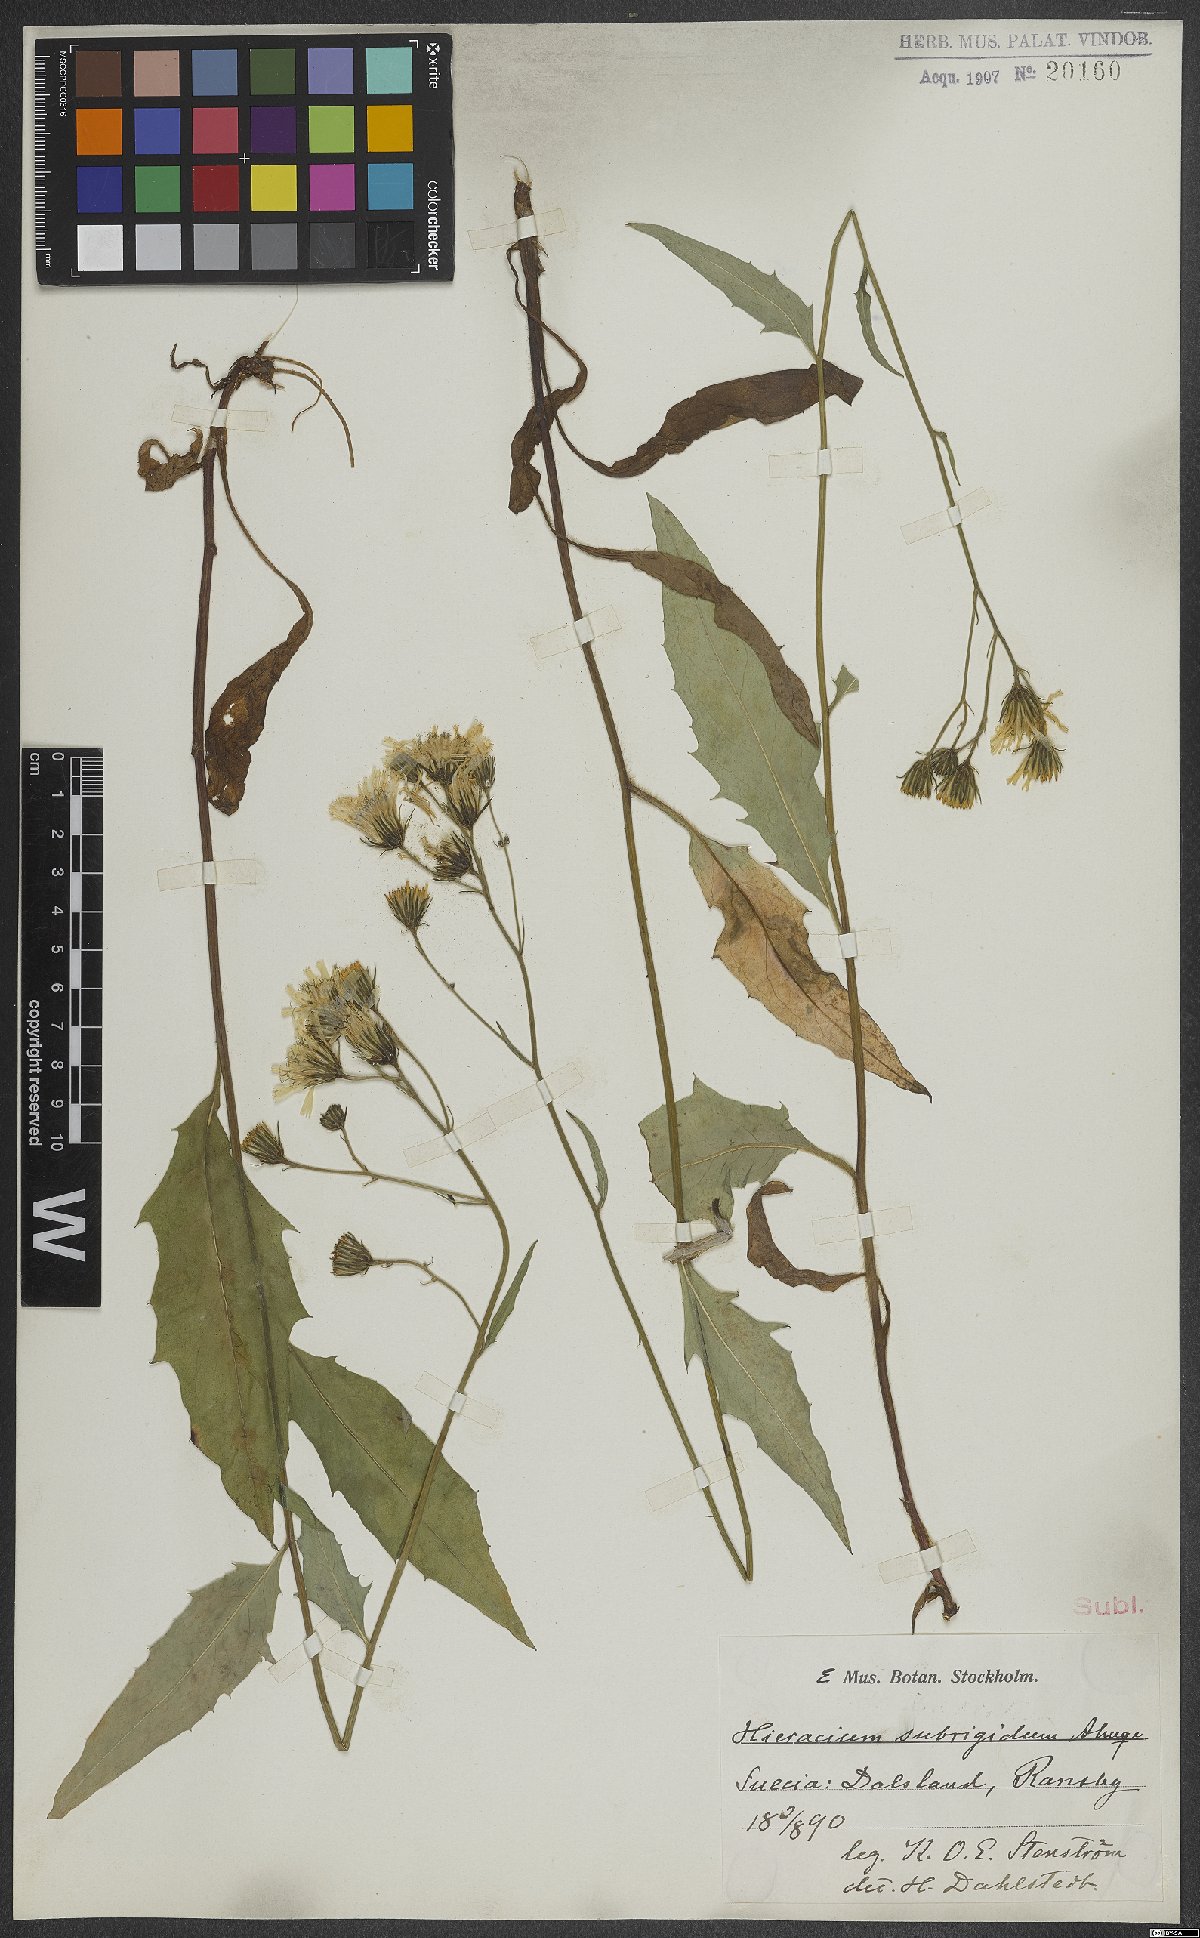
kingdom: Plantae
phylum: Tracheophyta
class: Magnoliopsida
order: Asterales
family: Asteraceae
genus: Hieracium
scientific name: Hieracium subrigidum
